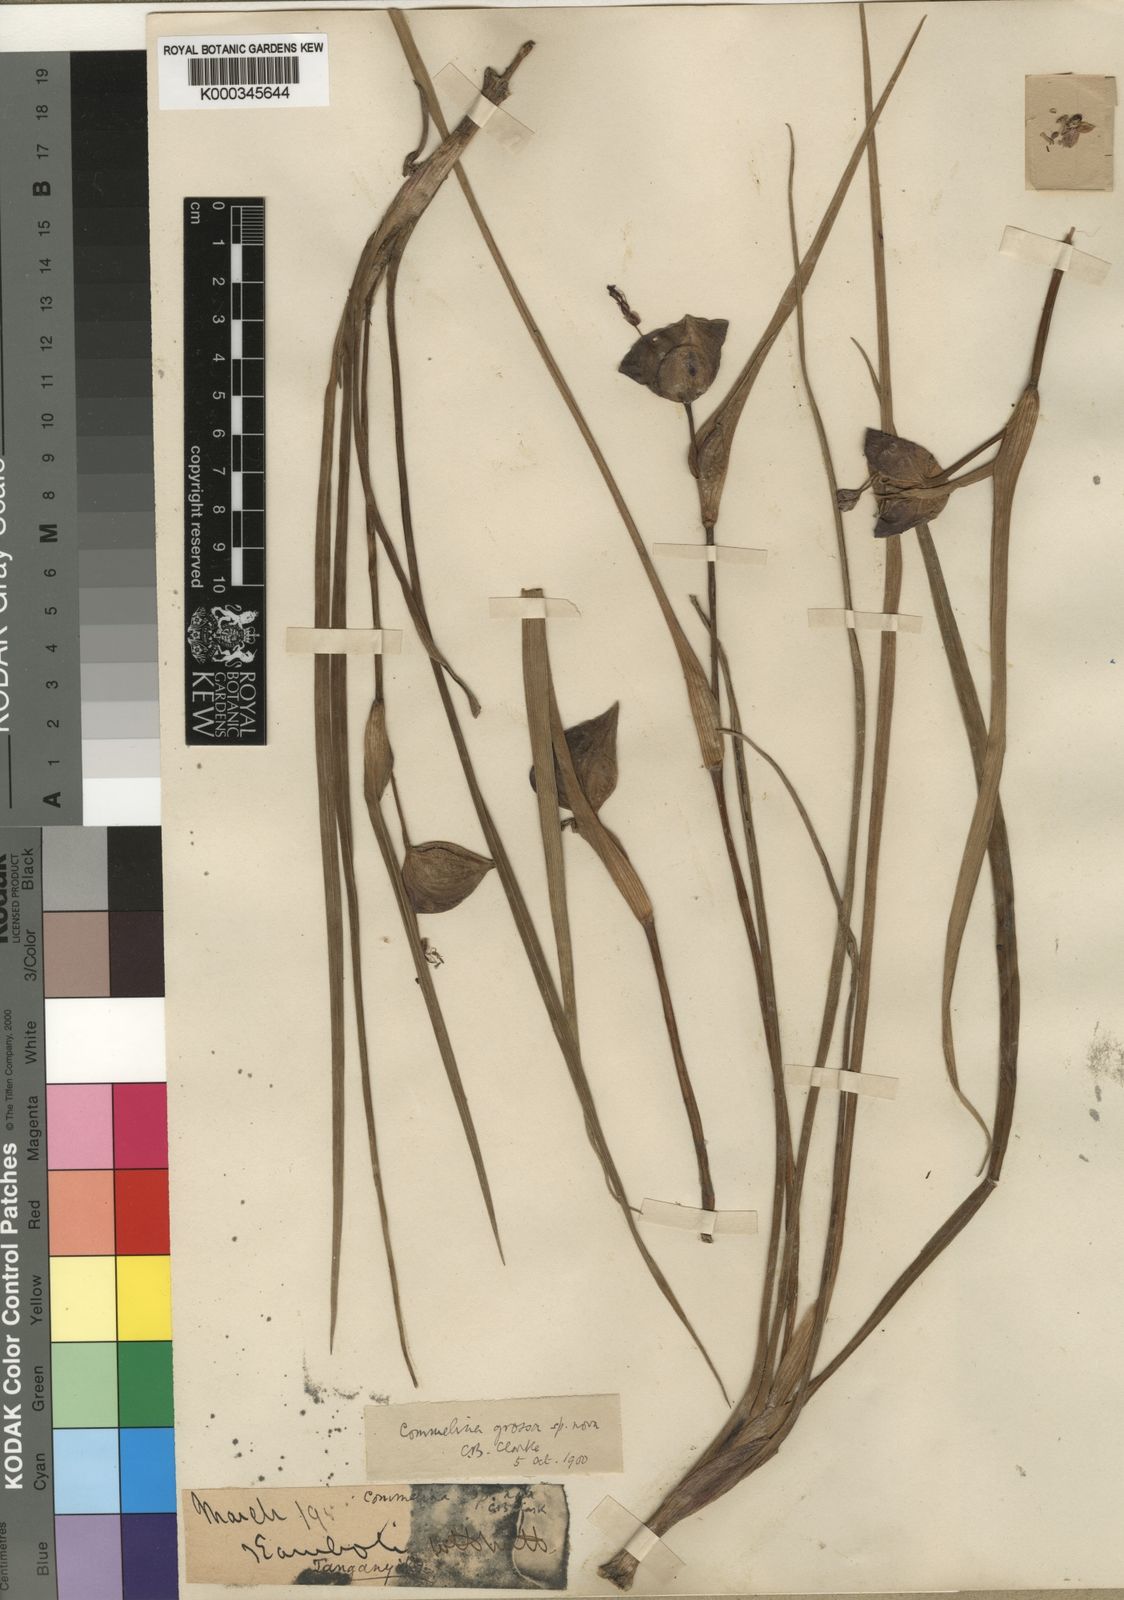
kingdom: Plantae
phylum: Tracheophyta
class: Liliopsida
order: Commelinales
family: Commelinaceae
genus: Commelina
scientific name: Commelina grossa
